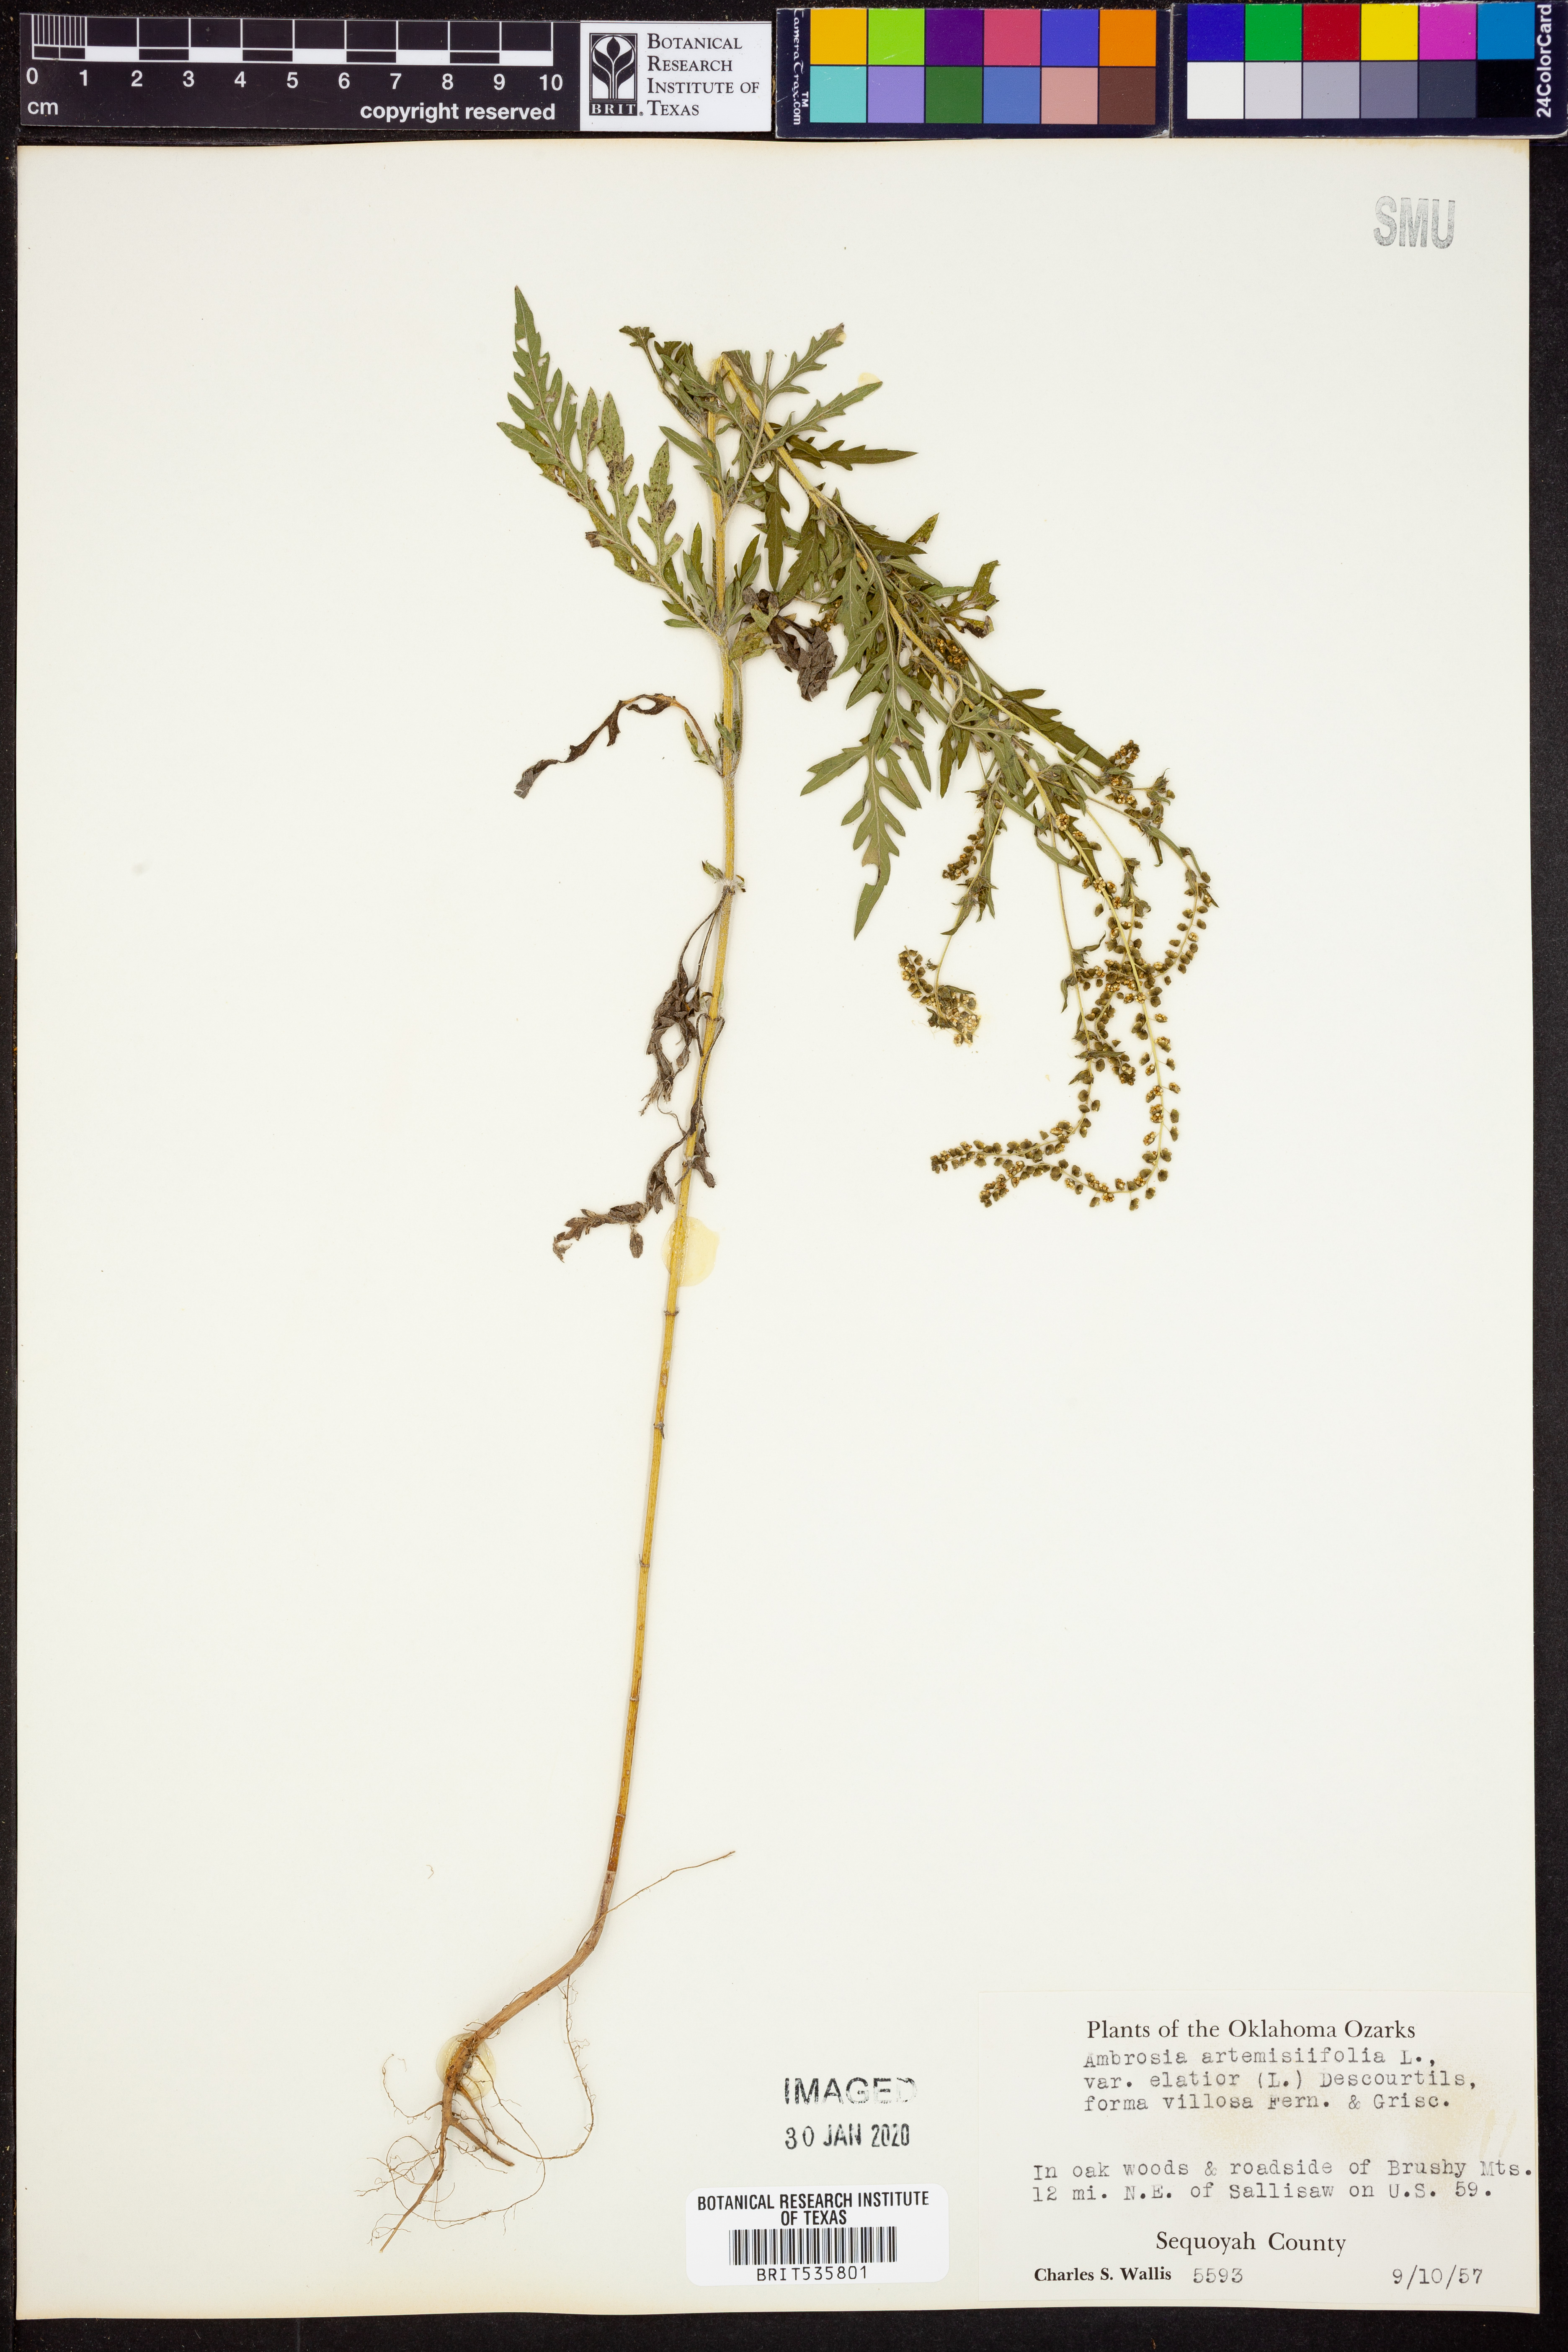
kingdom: Plantae
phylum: Tracheophyta
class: Magnoliopsida
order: Asterales
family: Asteraceae
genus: Ambrosia
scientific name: Ambrosia artemisiifolia
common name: Annual ragweed
